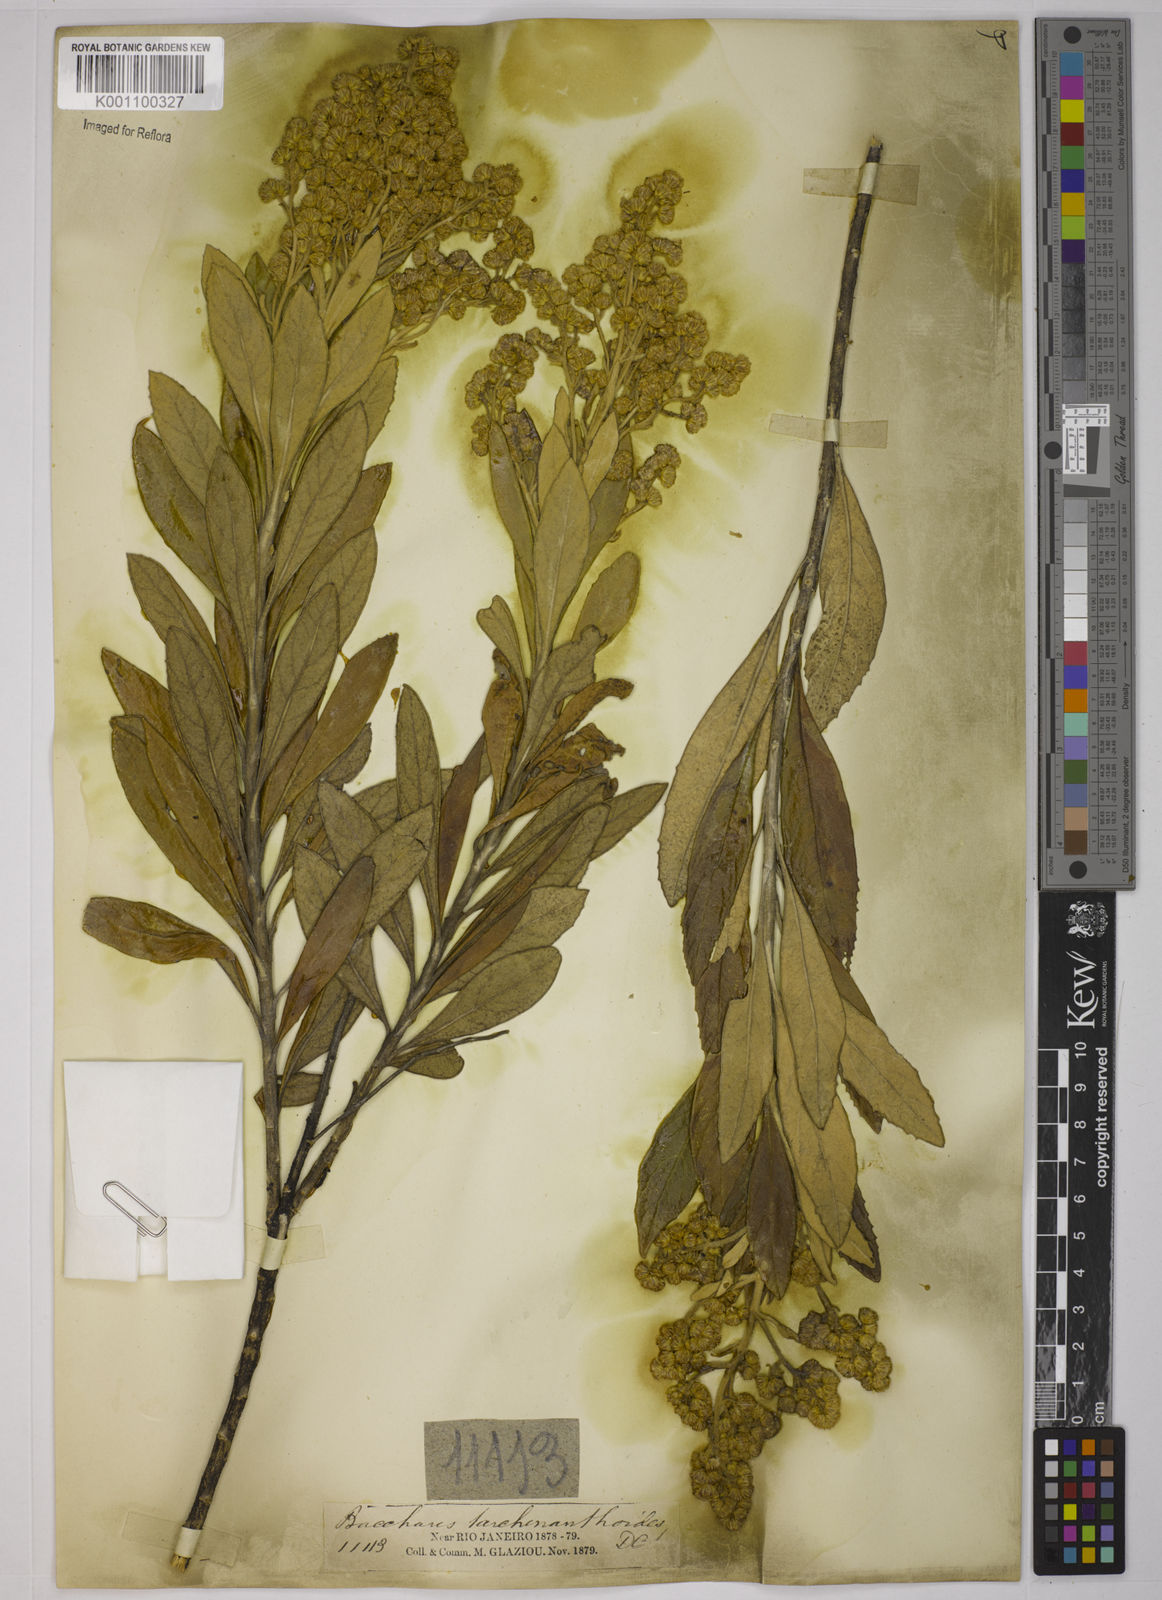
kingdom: Plantae
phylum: Tracheophyta
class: Magnoliopsida
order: Asterales
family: Asteraceae
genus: Baccharis
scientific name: Baccharis
